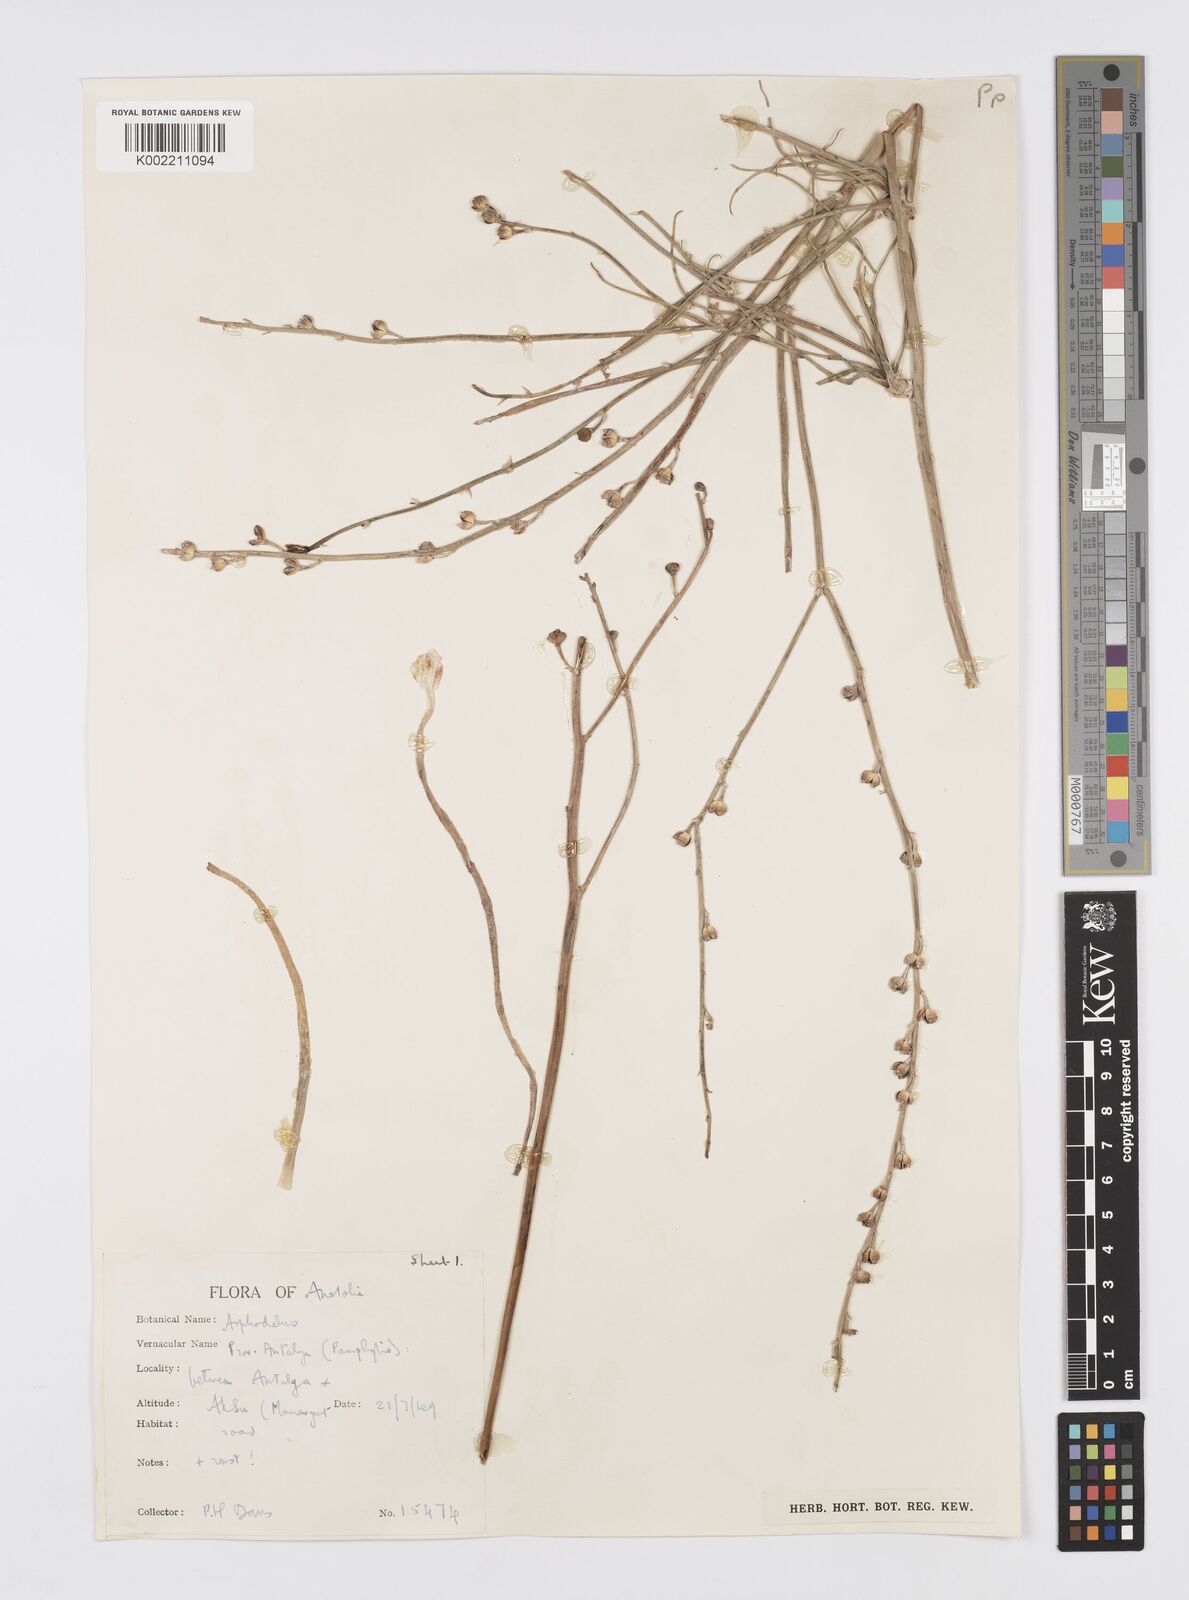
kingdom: Plantae
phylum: Tracheophyta
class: Liliopsida
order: Asparagales
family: Asphodelaceae
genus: Asphodelus
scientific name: Asphodelus fistulosus
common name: Onionweed
